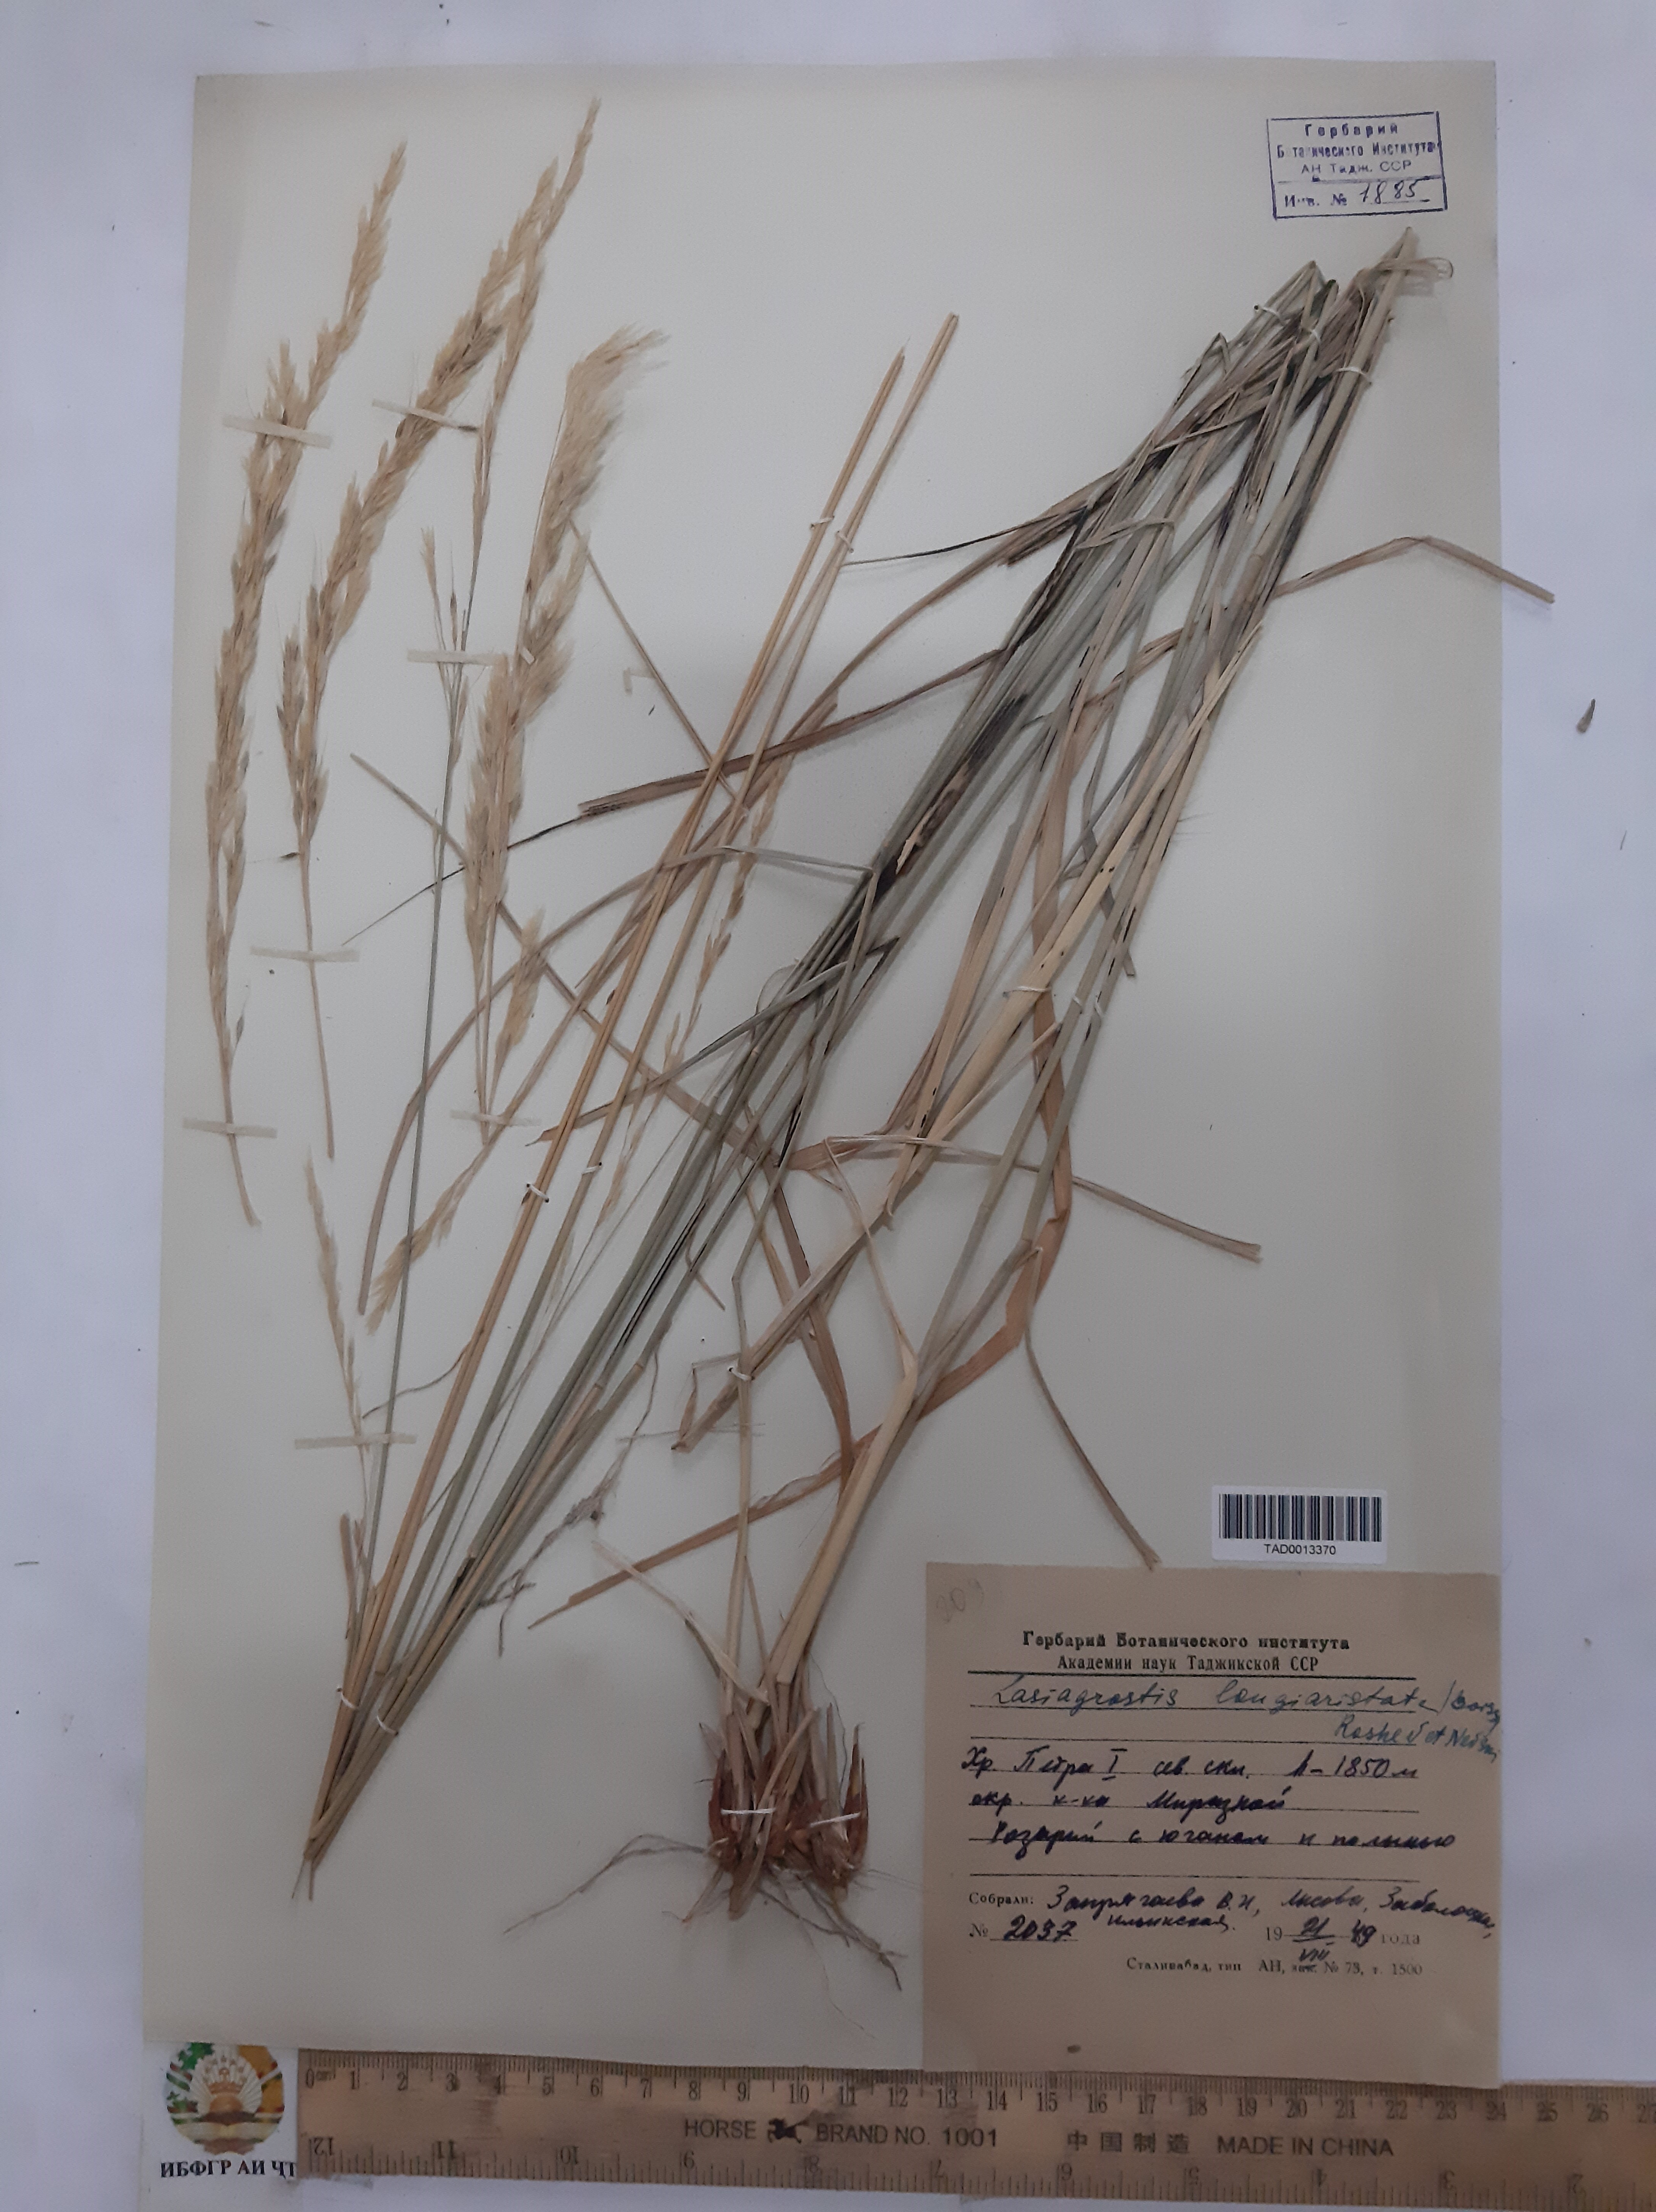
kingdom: Plantae
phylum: Tracheophyta
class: Liliopsida
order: Poales
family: Poaceae
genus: Achnatherum
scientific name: Achnatherum turcomanicum
